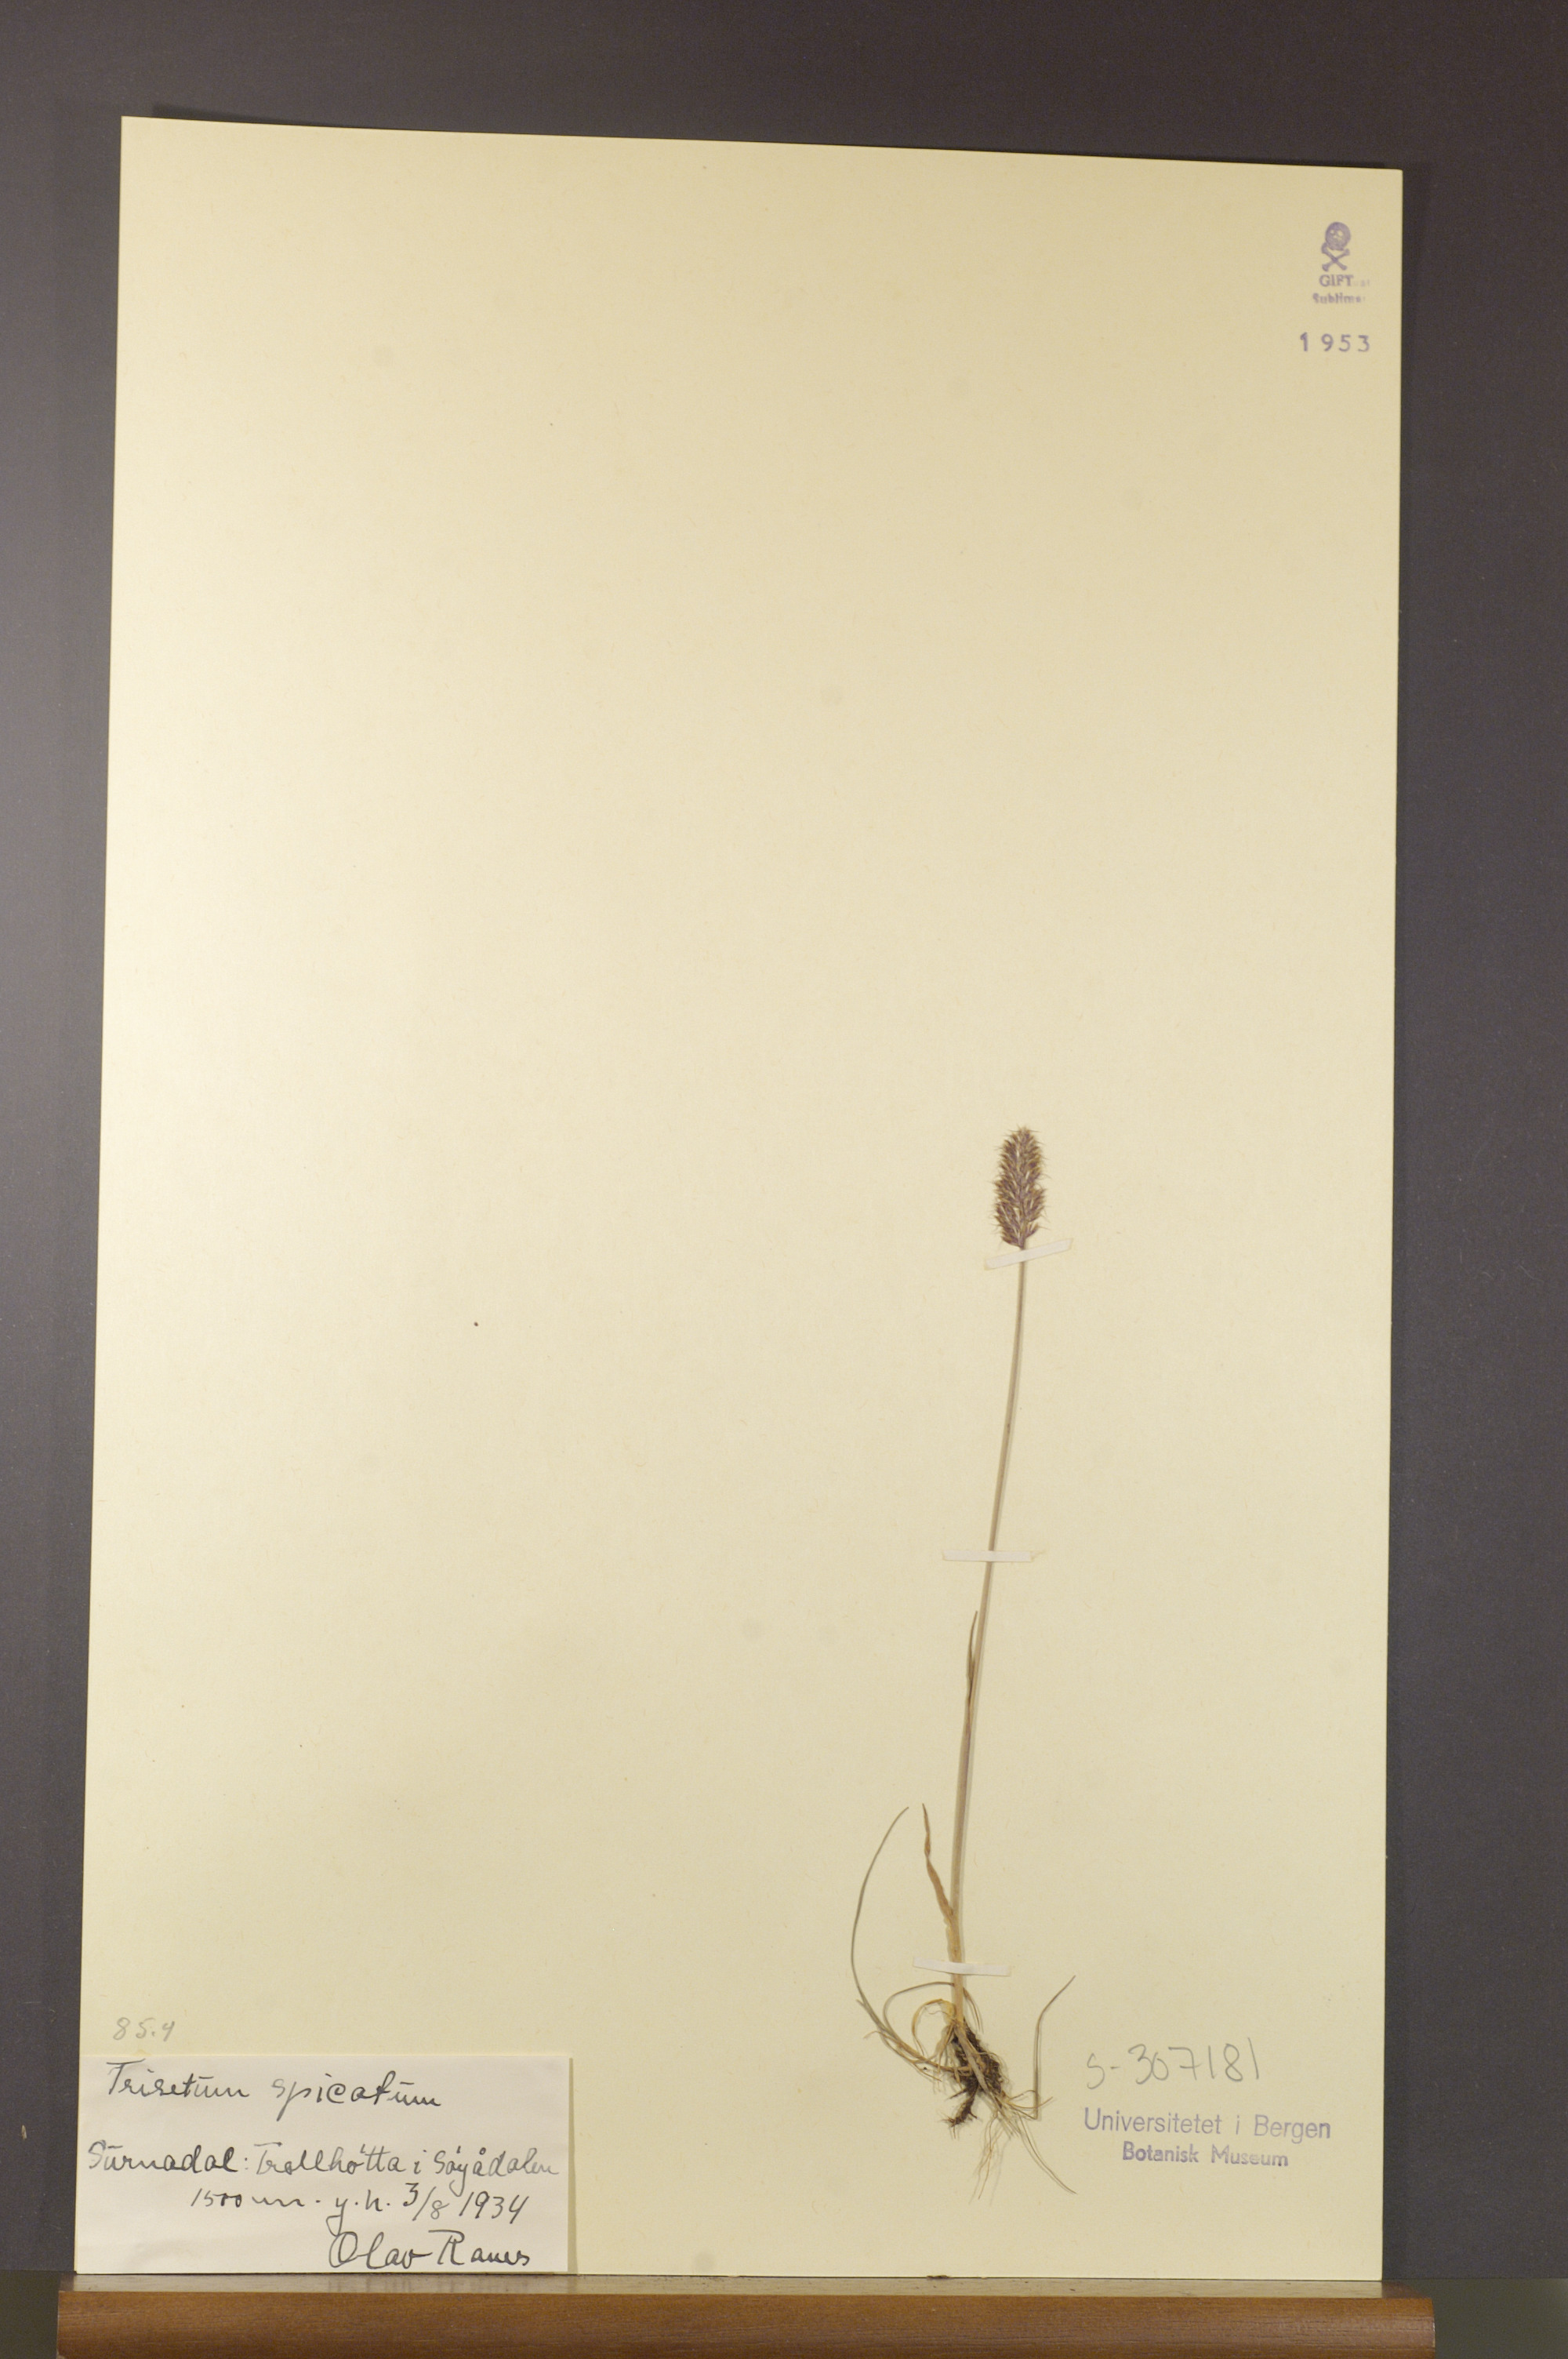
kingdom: Plantae
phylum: Tracheophyta
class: Liliopsida
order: Poales
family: Poaceae
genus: Koeleria
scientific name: Koeleria spicata
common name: Mountain trisetum
